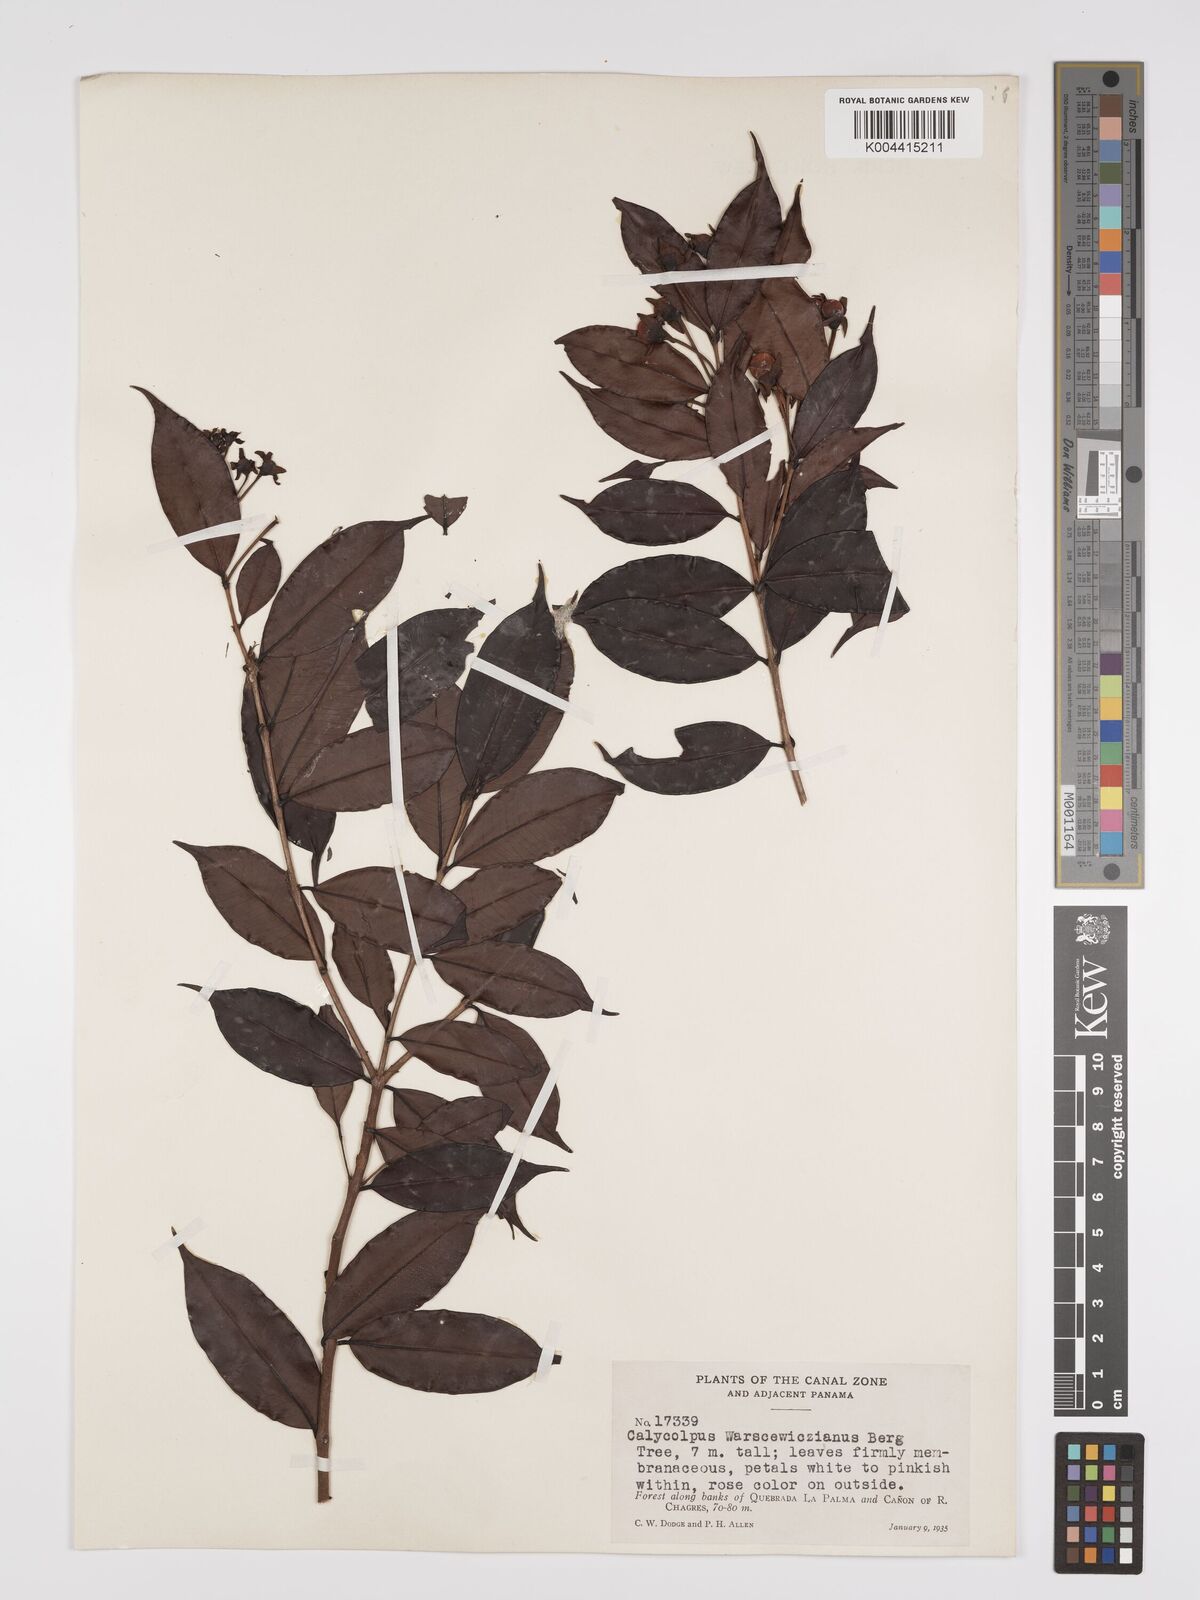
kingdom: Plantae
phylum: Tracheophyta
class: Magnoliopsida
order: Myrtales
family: Myrtaceae
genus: Calycolpus
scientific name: Calycolpus warszewiczianus
